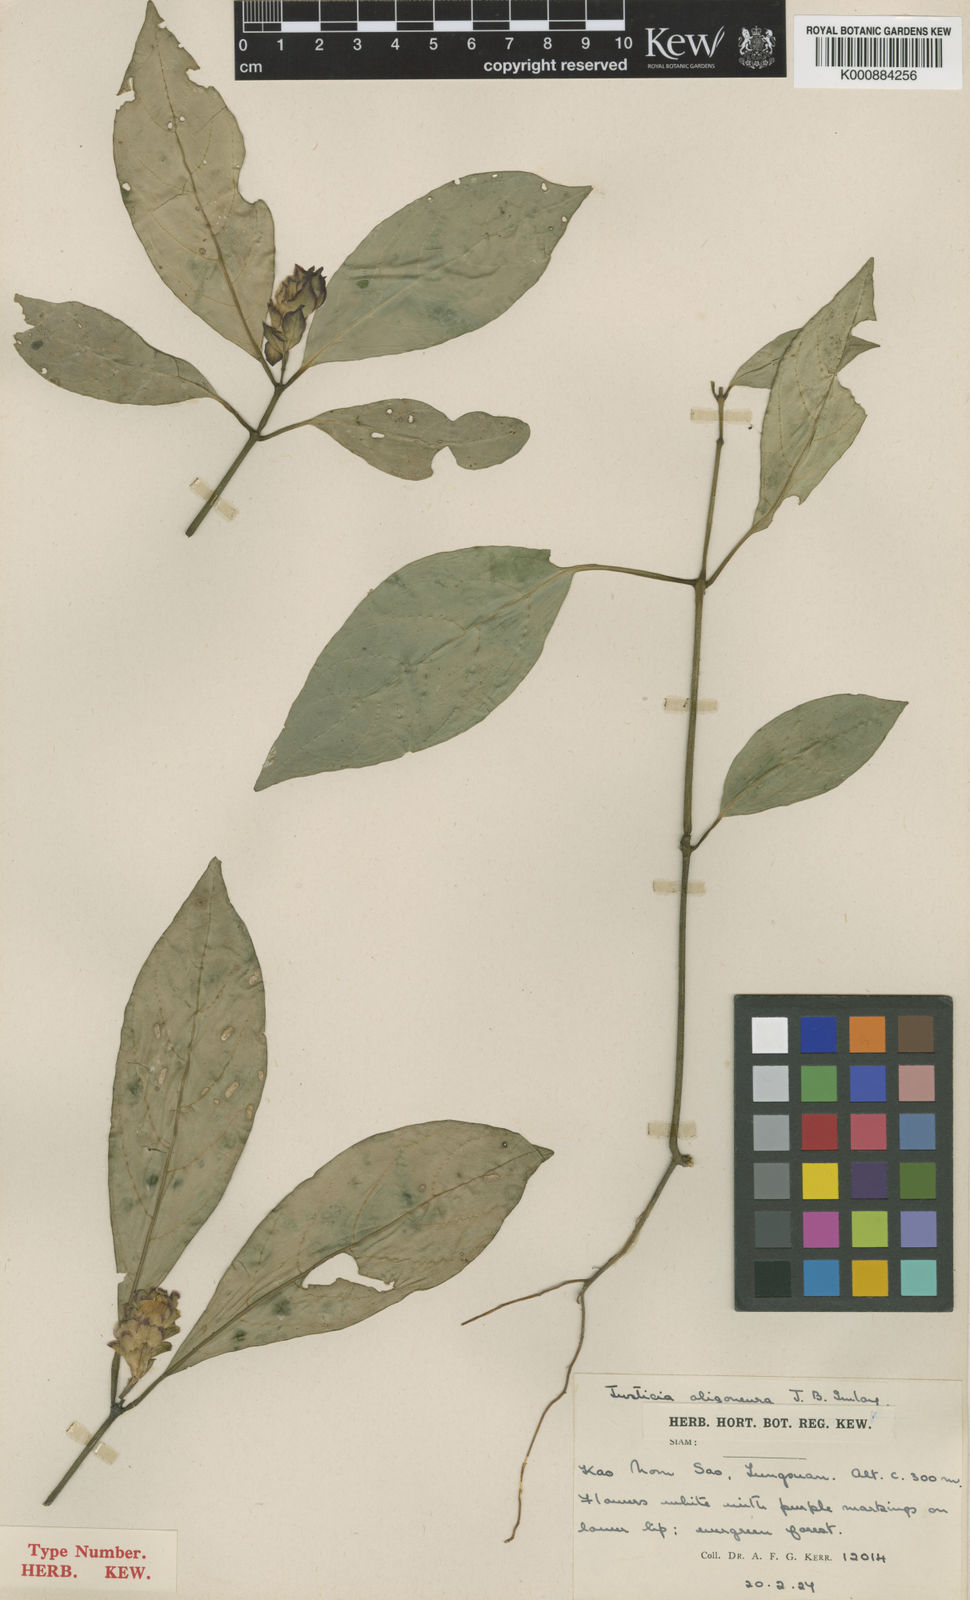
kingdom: Plantae
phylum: Tracheophyta
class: Magnoliopsida
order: Lamiales
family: Acanthaceae
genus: Rungia
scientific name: Rungia oligoneura
